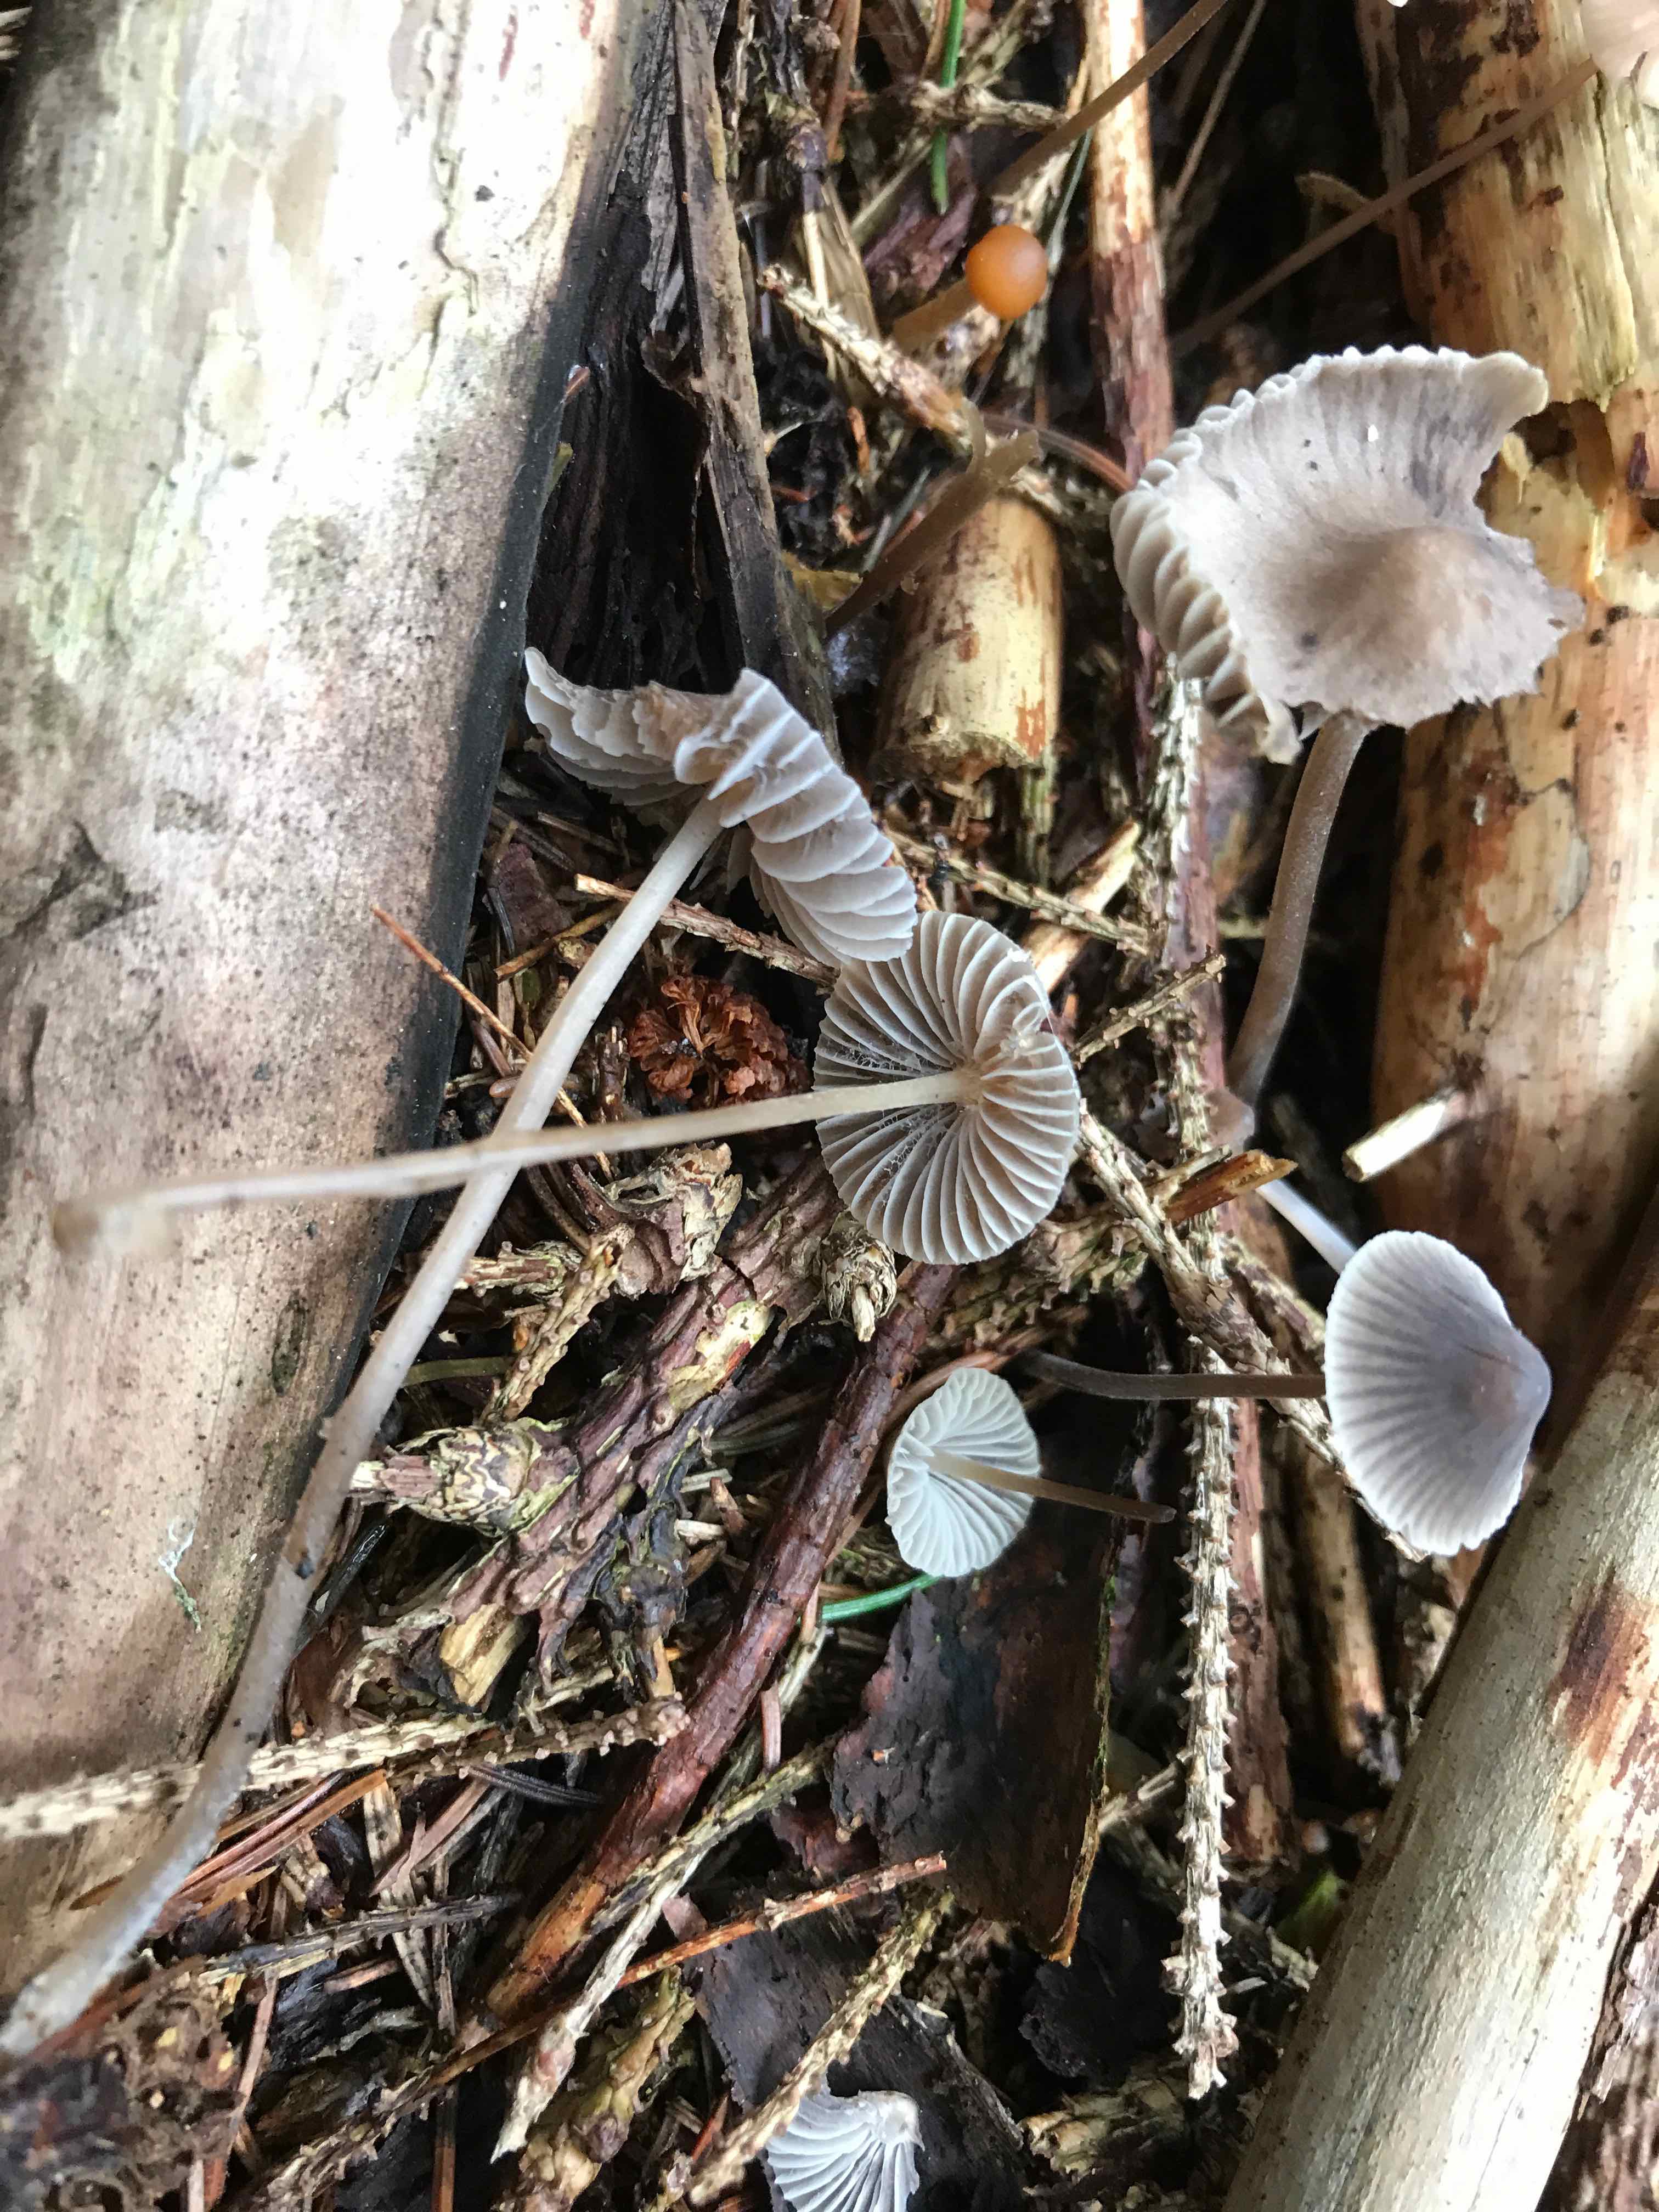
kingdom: Fungi
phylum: Basidiomycota
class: Agaricomycetes
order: Agaricales
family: Mycenaceae
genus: Mycena
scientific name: Mycena
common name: huesvamp
